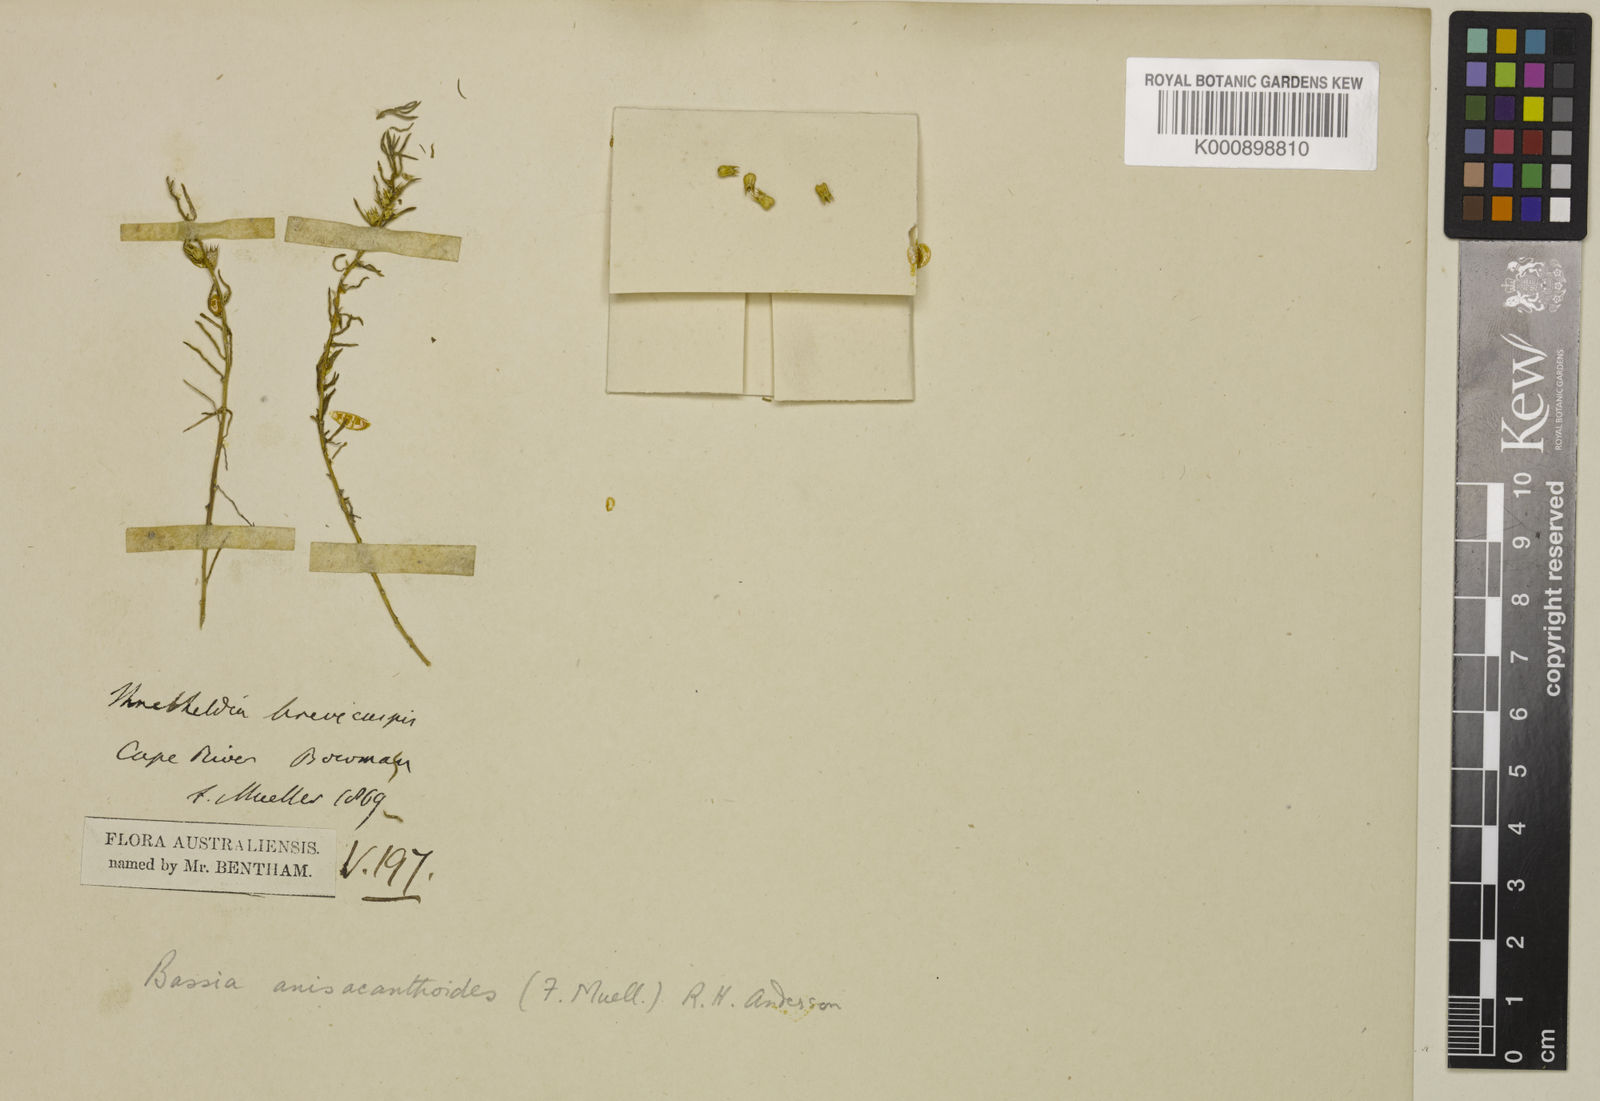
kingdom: Plantae
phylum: Tracheophyta
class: Magnoliopsida
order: Caryophyllales
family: Amaranthaceae
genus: Bassia
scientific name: Bassia
